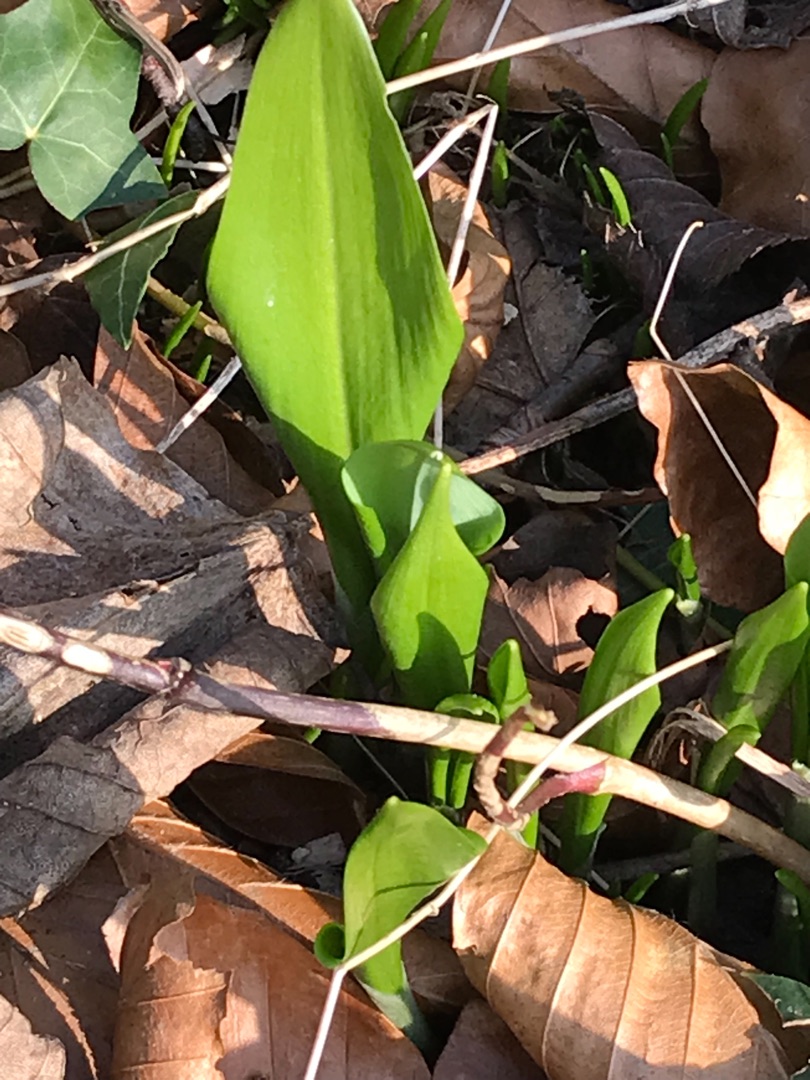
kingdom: Plantae
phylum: Tracheophyta
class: Liliopsida
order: Asparagales
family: Amaryllidaceae
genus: Allium
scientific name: Allium ursinum
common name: Rams-løg
